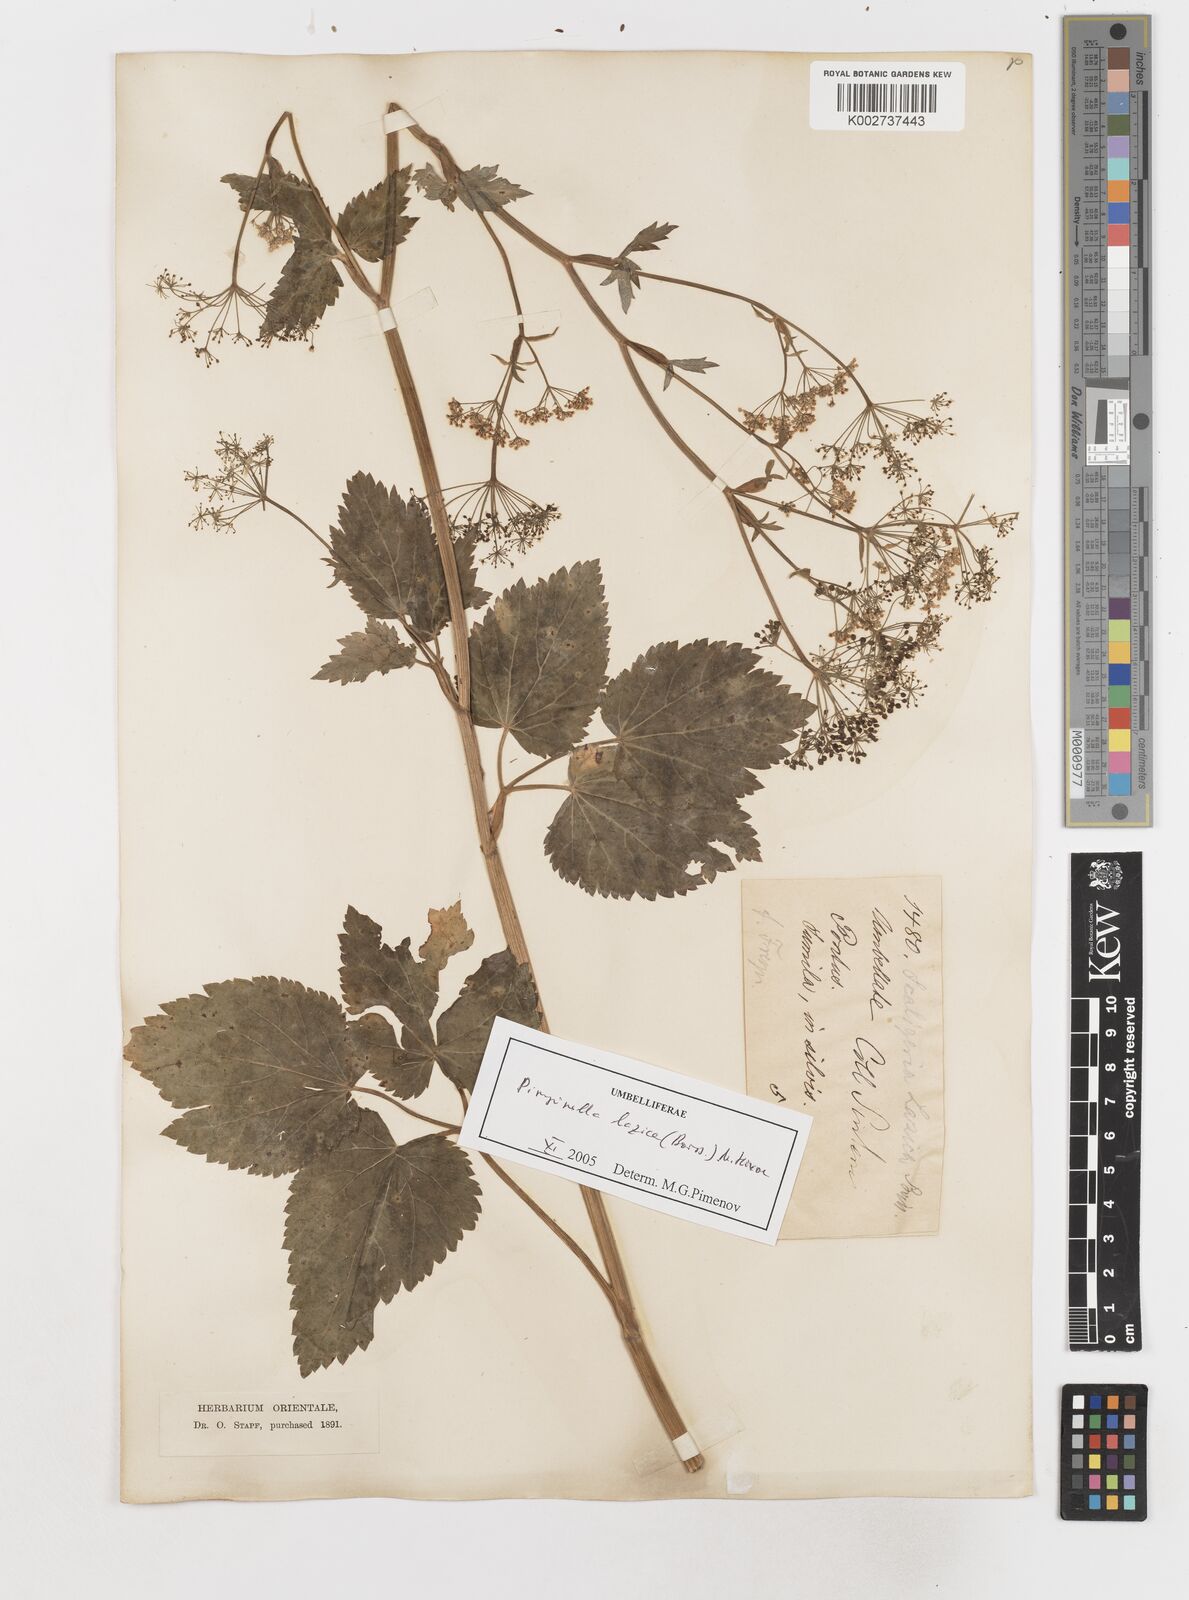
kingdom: Plantae
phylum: Tracheophyta
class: Magnoliopsida
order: Apiales
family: Apiaceae
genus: Scaligeria
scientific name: Scaligeria lazica
